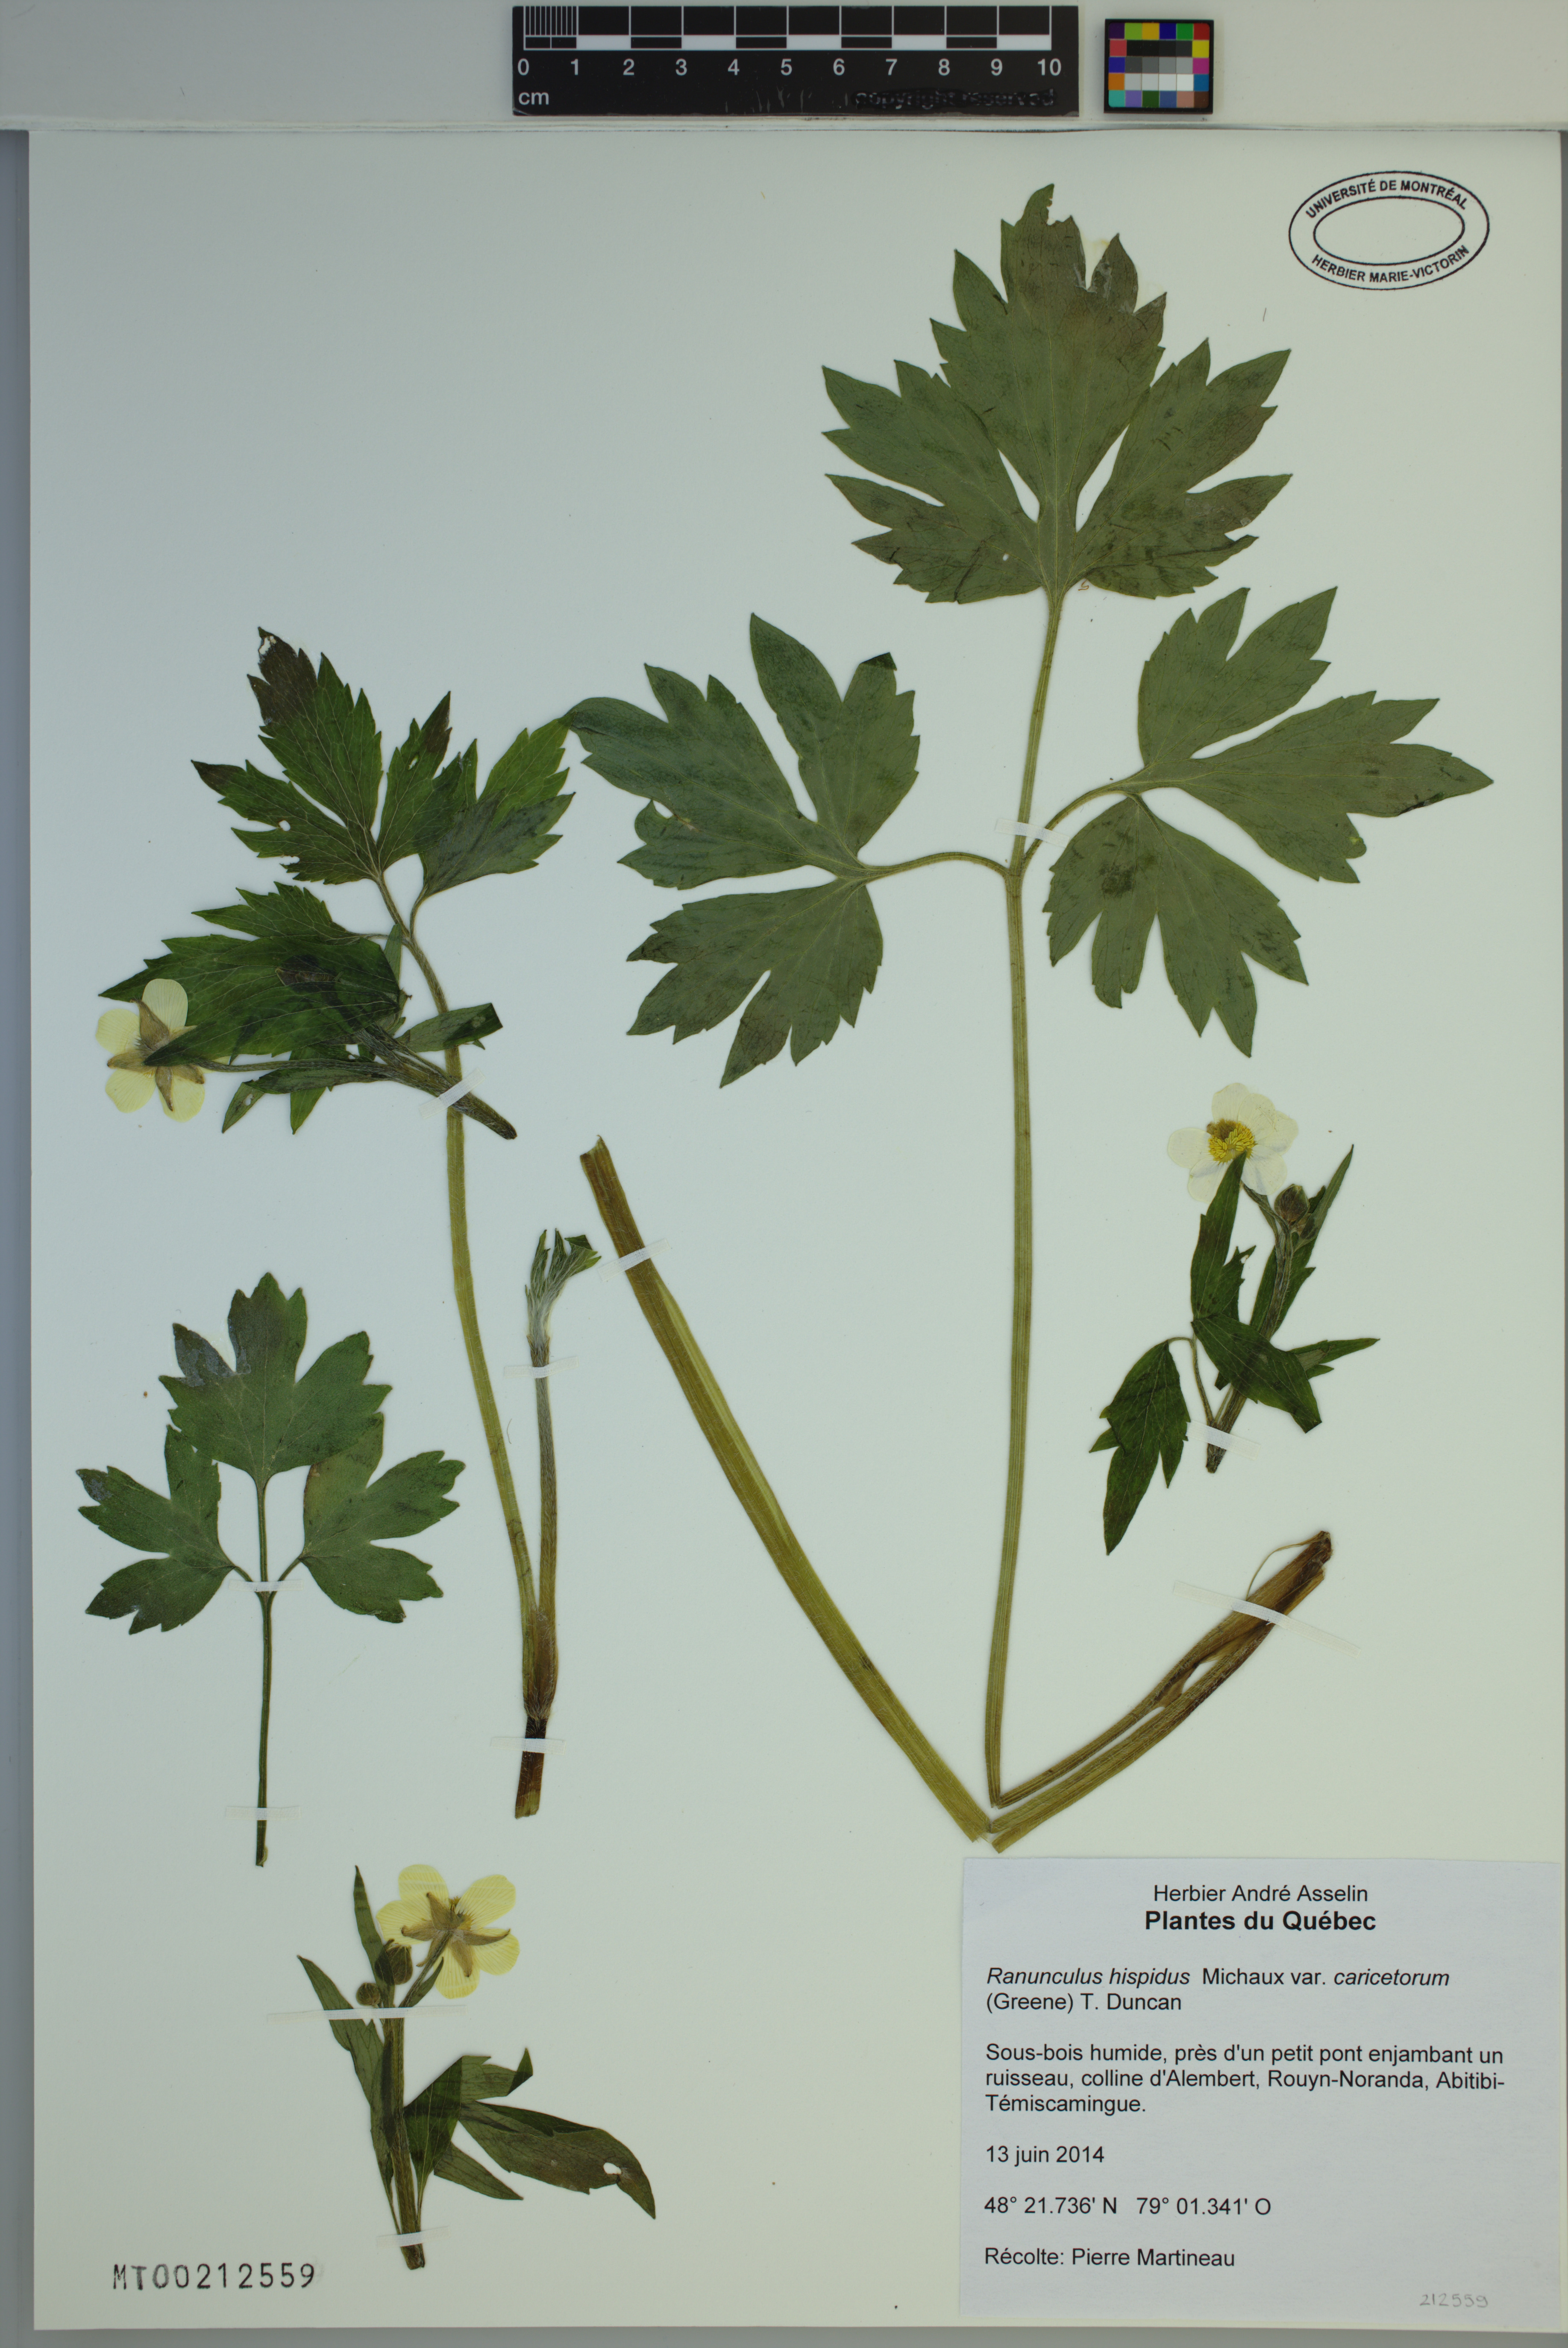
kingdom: Plantae
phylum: Tracheophyta
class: Magnoliopsida
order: Ranunculales
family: Ranunculaceae
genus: Ranunculus
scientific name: Ranunculus hispidus
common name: Bristly buttercup
